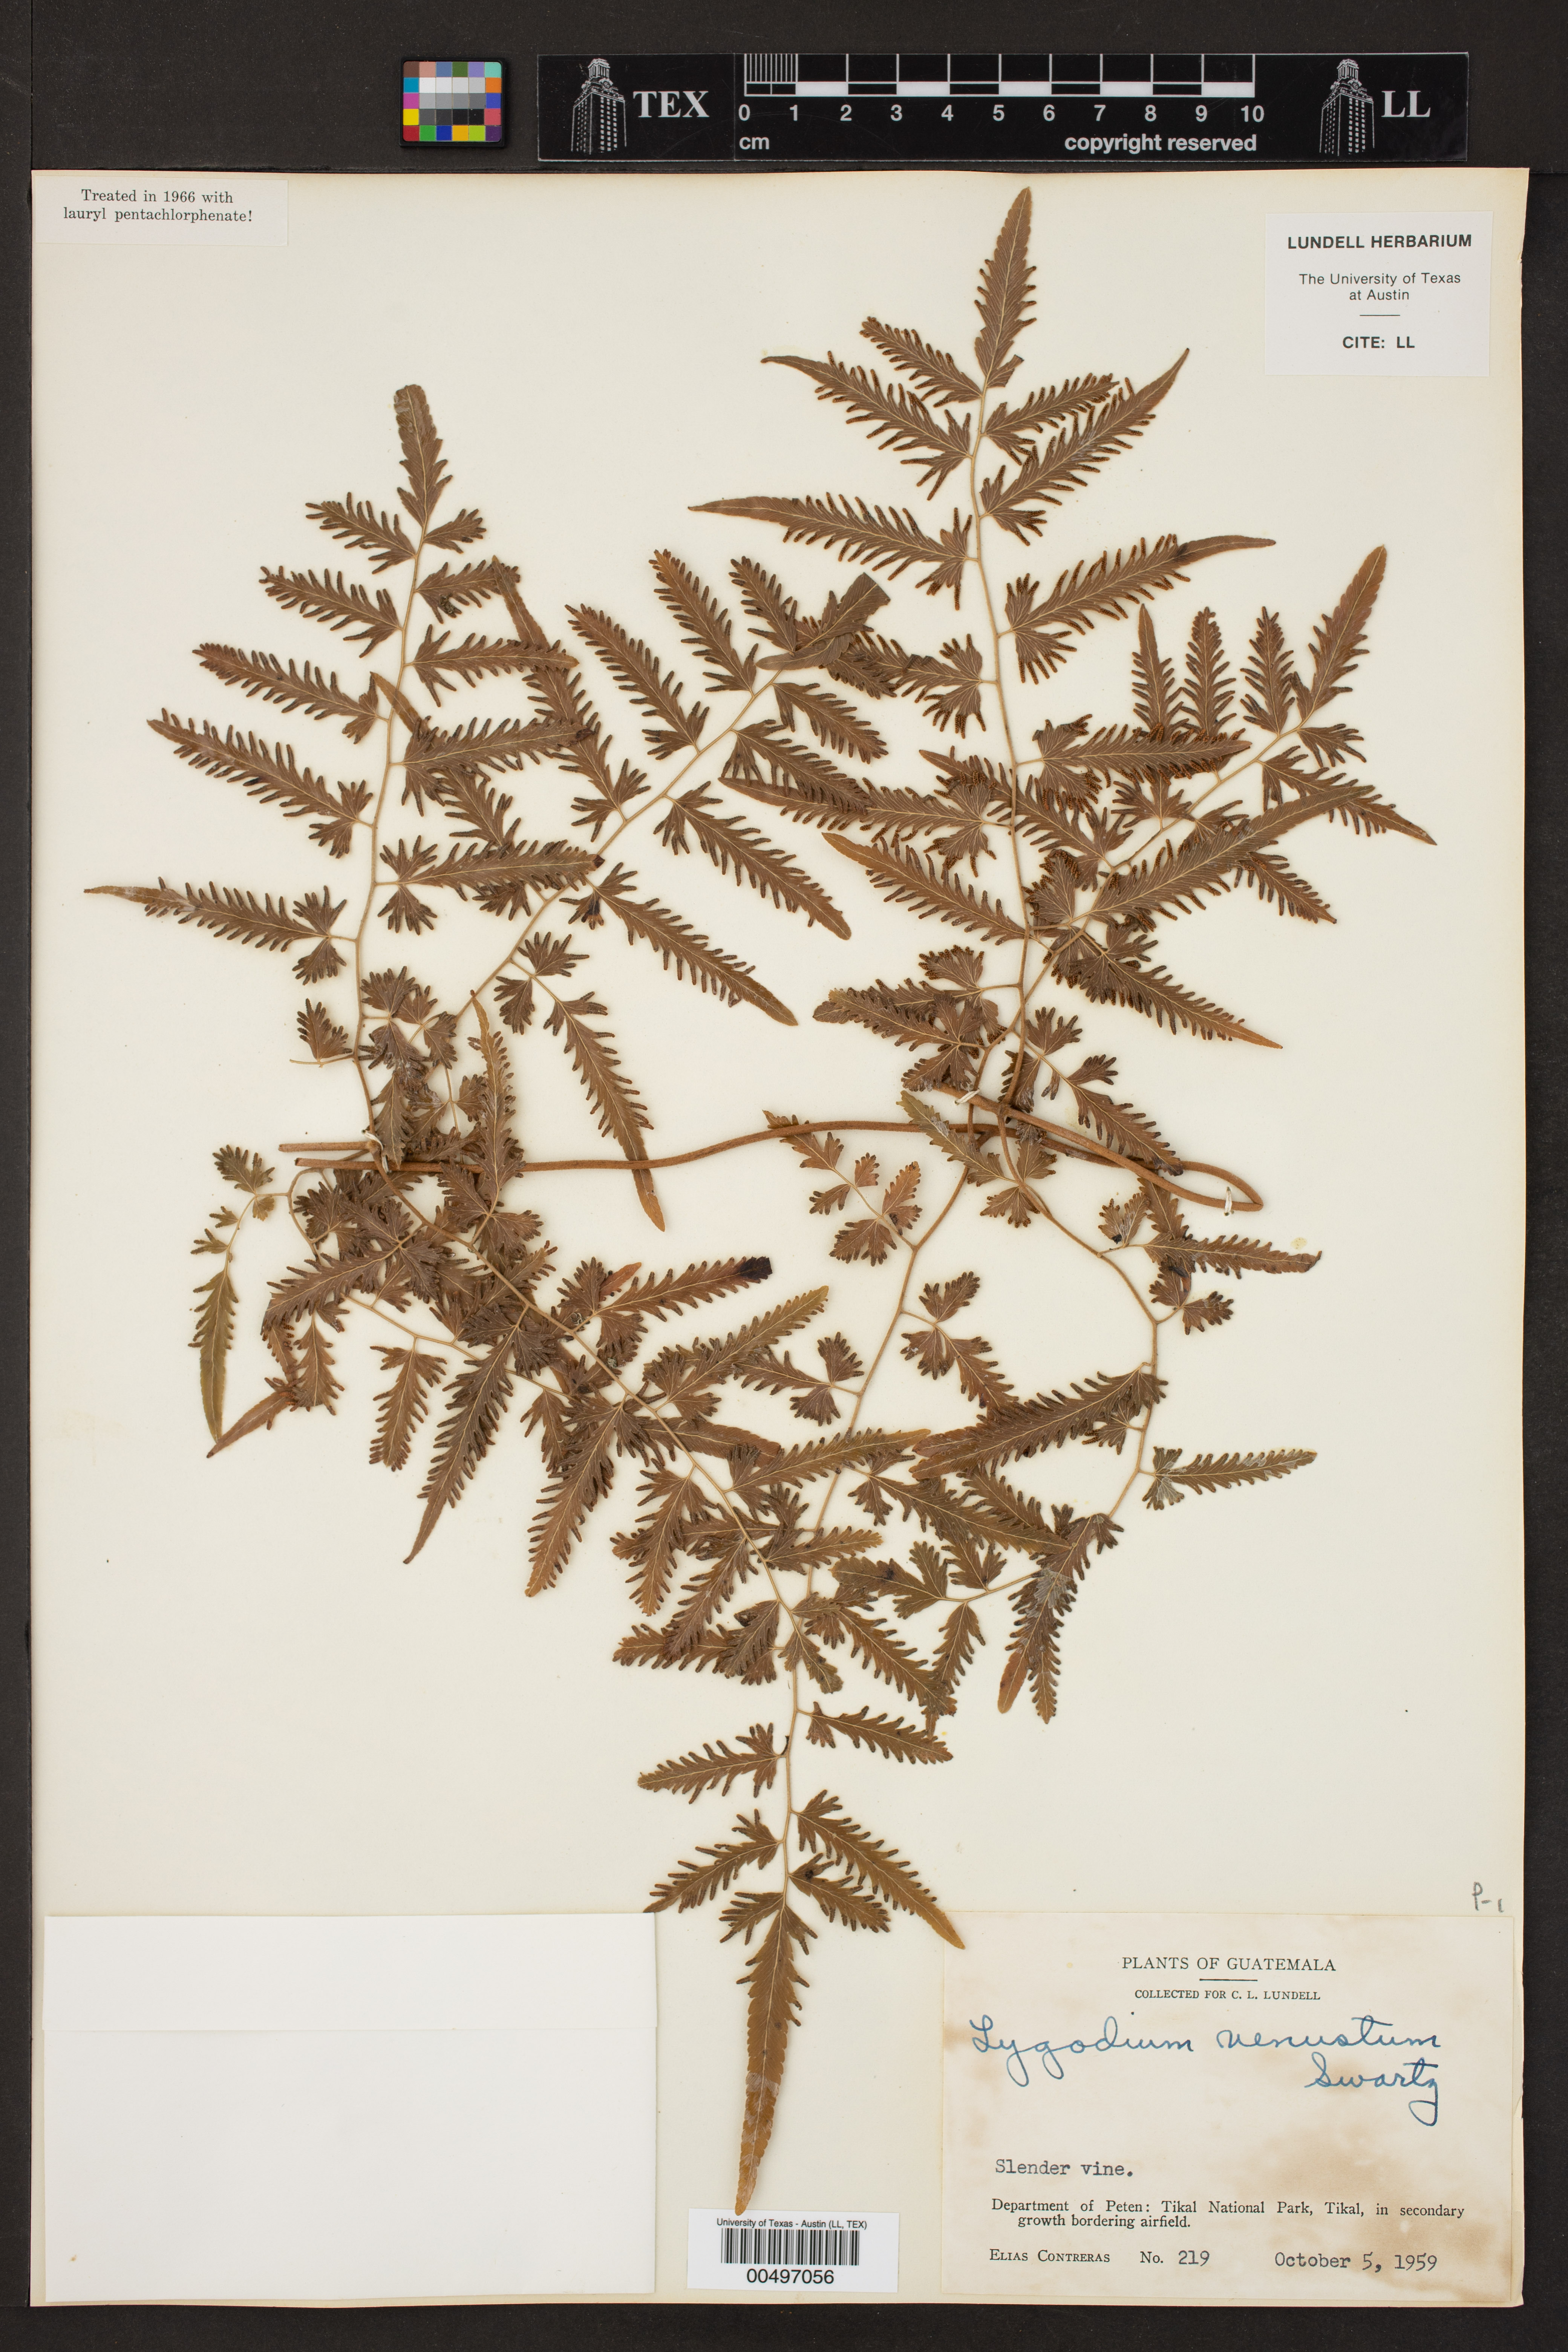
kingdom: Plantae
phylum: Tracheophyta
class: Polypodiopsida
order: Schizaeales
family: Lygodiaceae
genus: Lygodium
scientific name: Lygodium venustum
